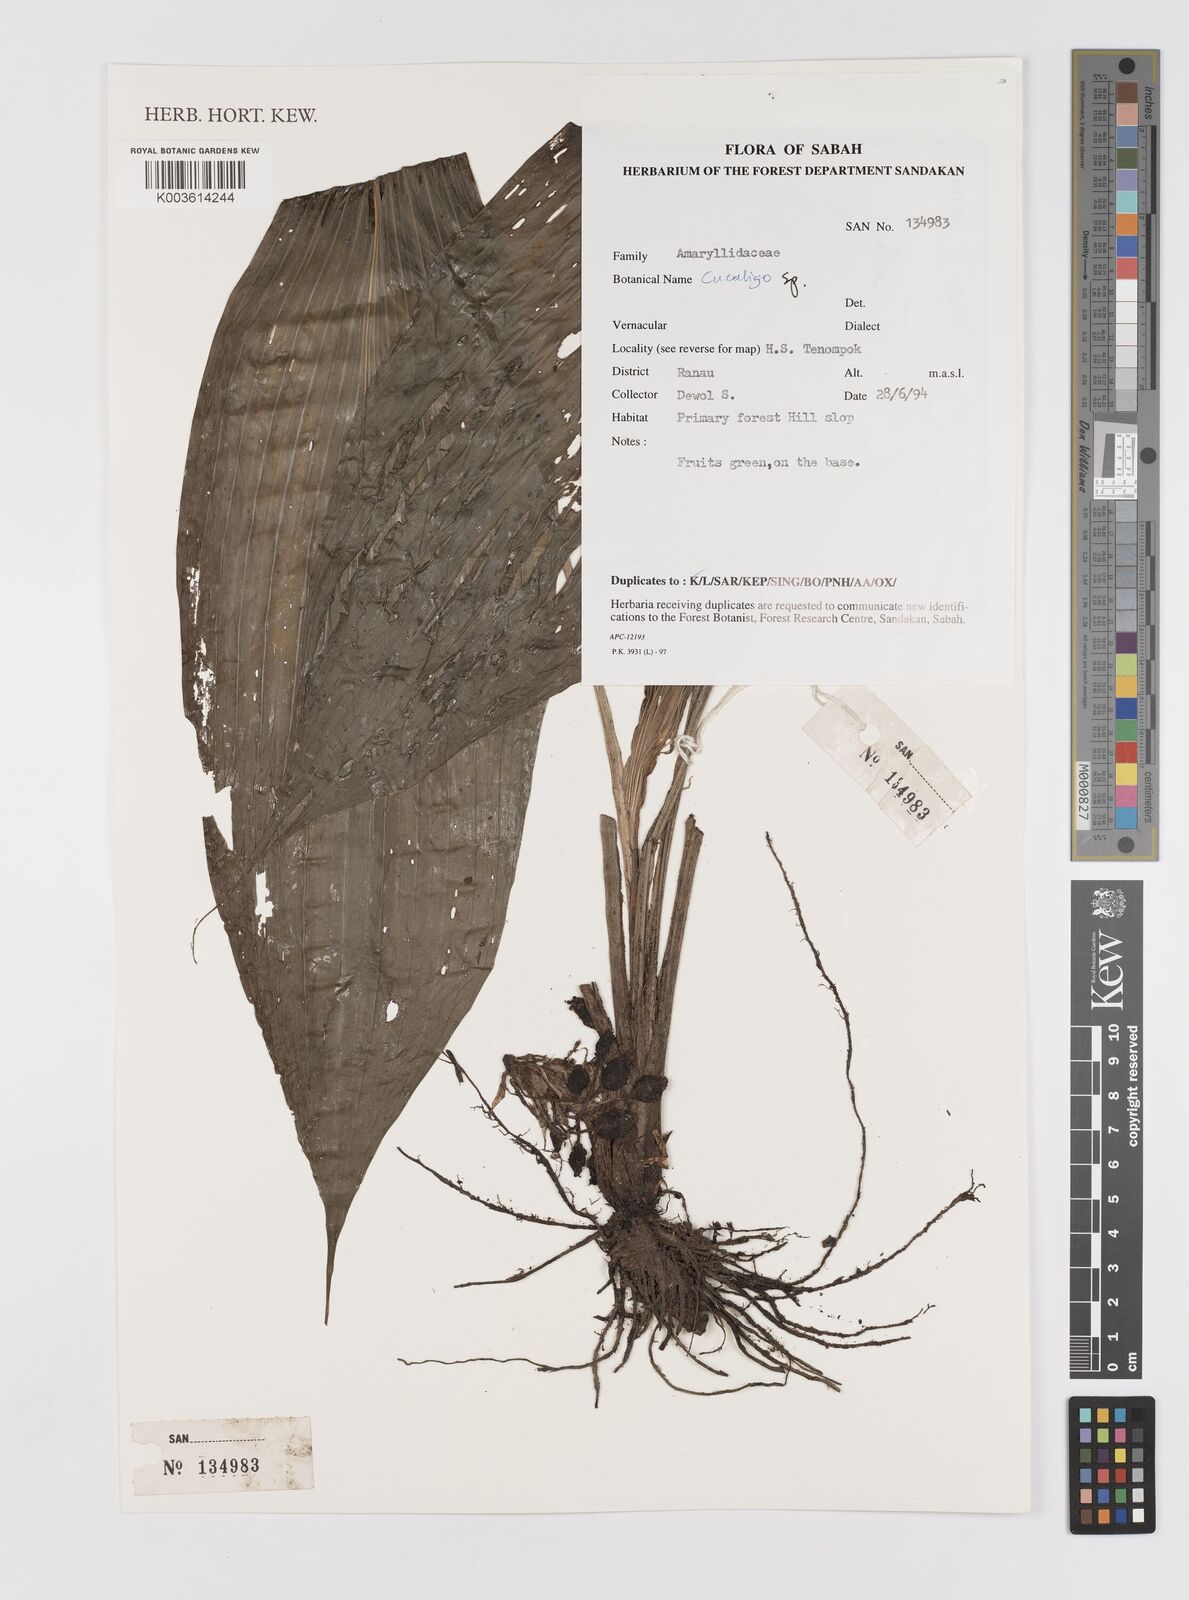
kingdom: Plantae
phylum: Tracheophyta
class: Liliopsida
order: Asparagales
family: Hypoxidaceae
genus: Curculigo
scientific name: Curculigo
